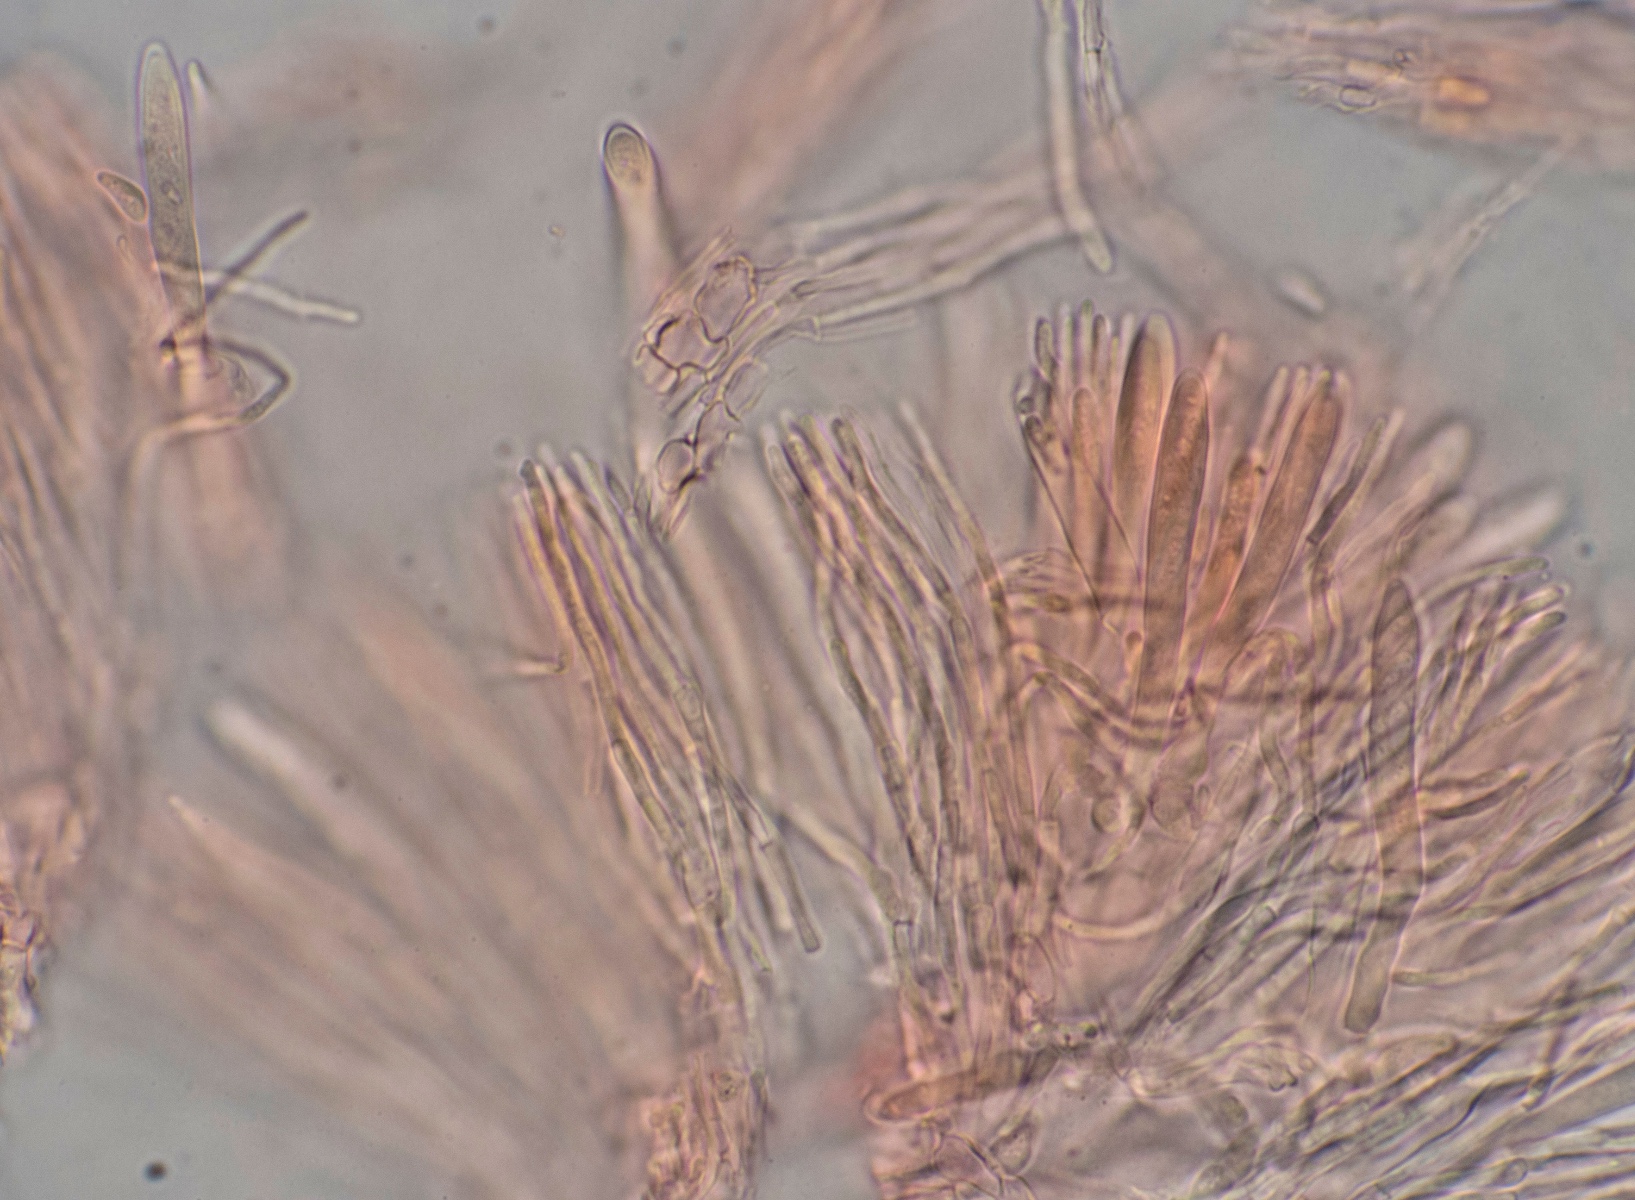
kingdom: Fungi
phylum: Ascomycota
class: Leotiomycetes
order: Helotiales
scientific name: Helotiales
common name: stilkskiveordenen
